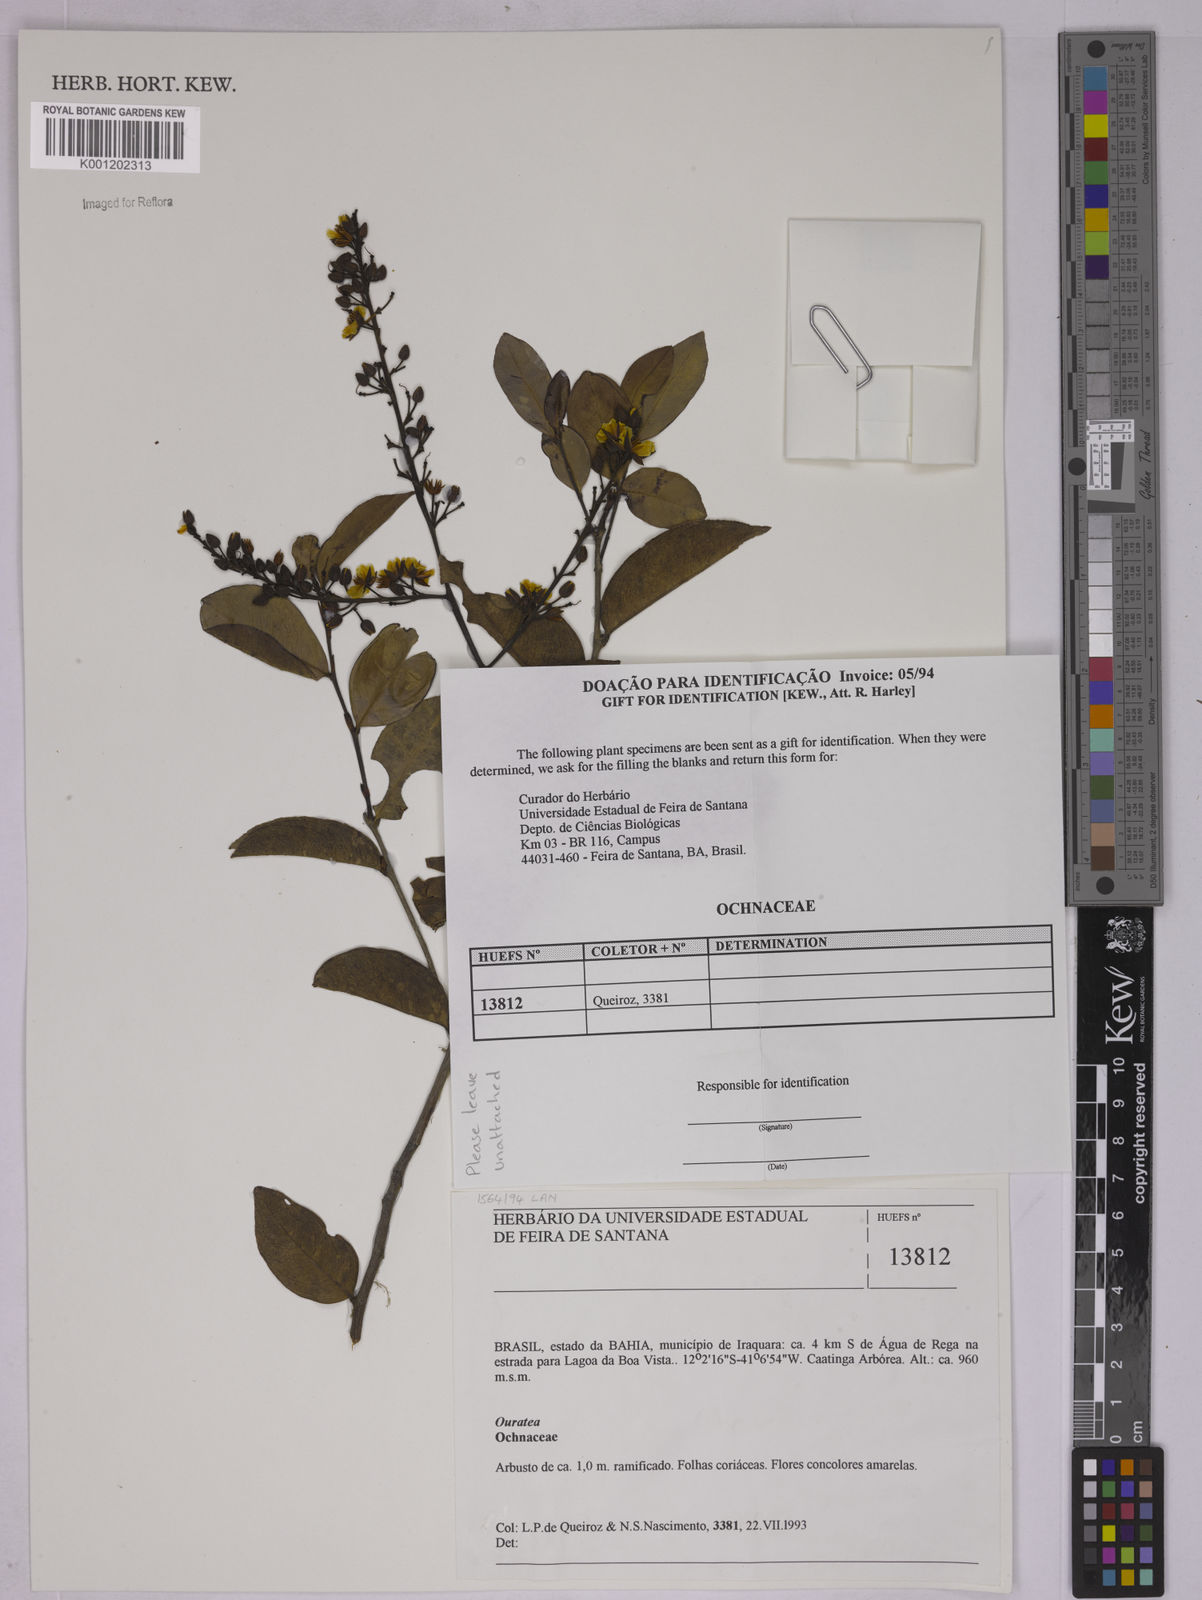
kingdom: Plantae
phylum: Tracheophyta
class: Magnoliopsida
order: Malpighiales
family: Ochnaceae
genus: Ouratea
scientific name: Ouratea
